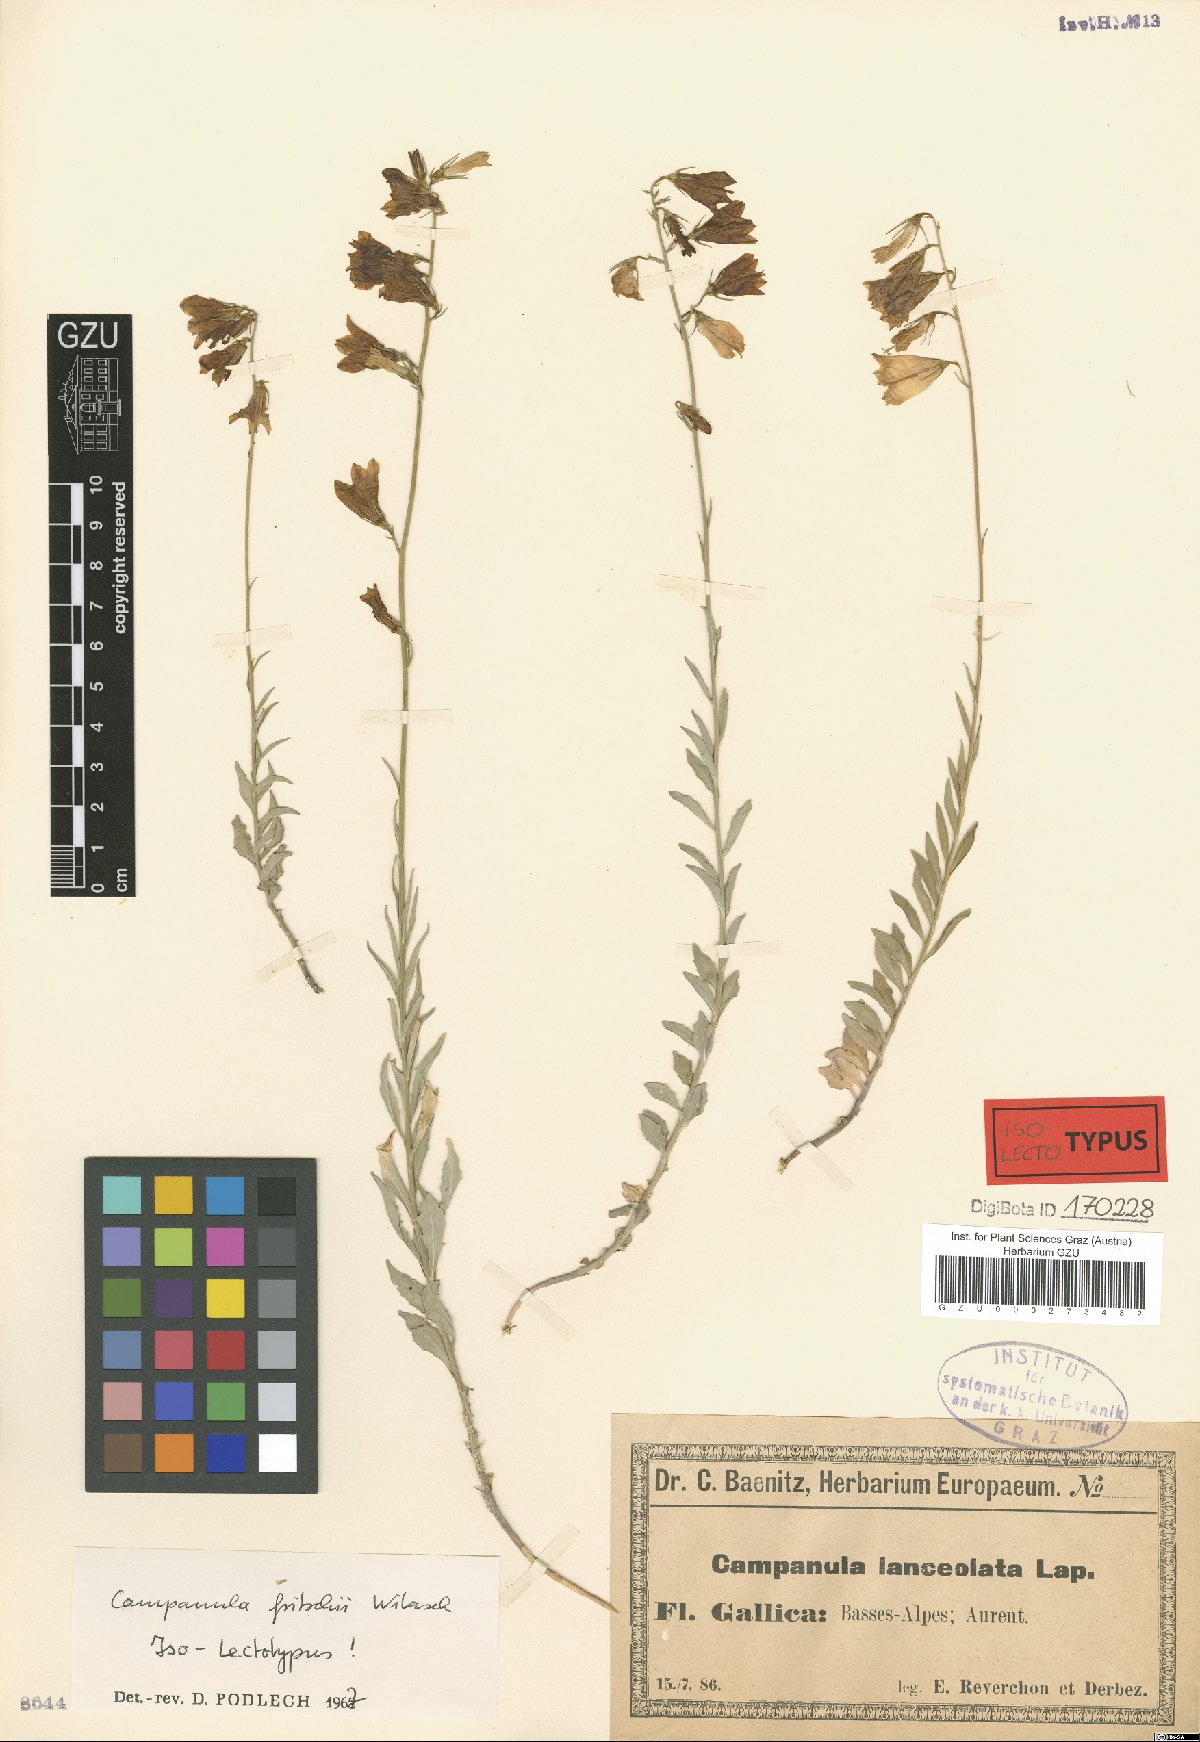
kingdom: Plantae
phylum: Tracheophyta
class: Magnoliopsida
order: Asterales
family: Campanulaceae
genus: Campanula
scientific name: Campanula fritschii
